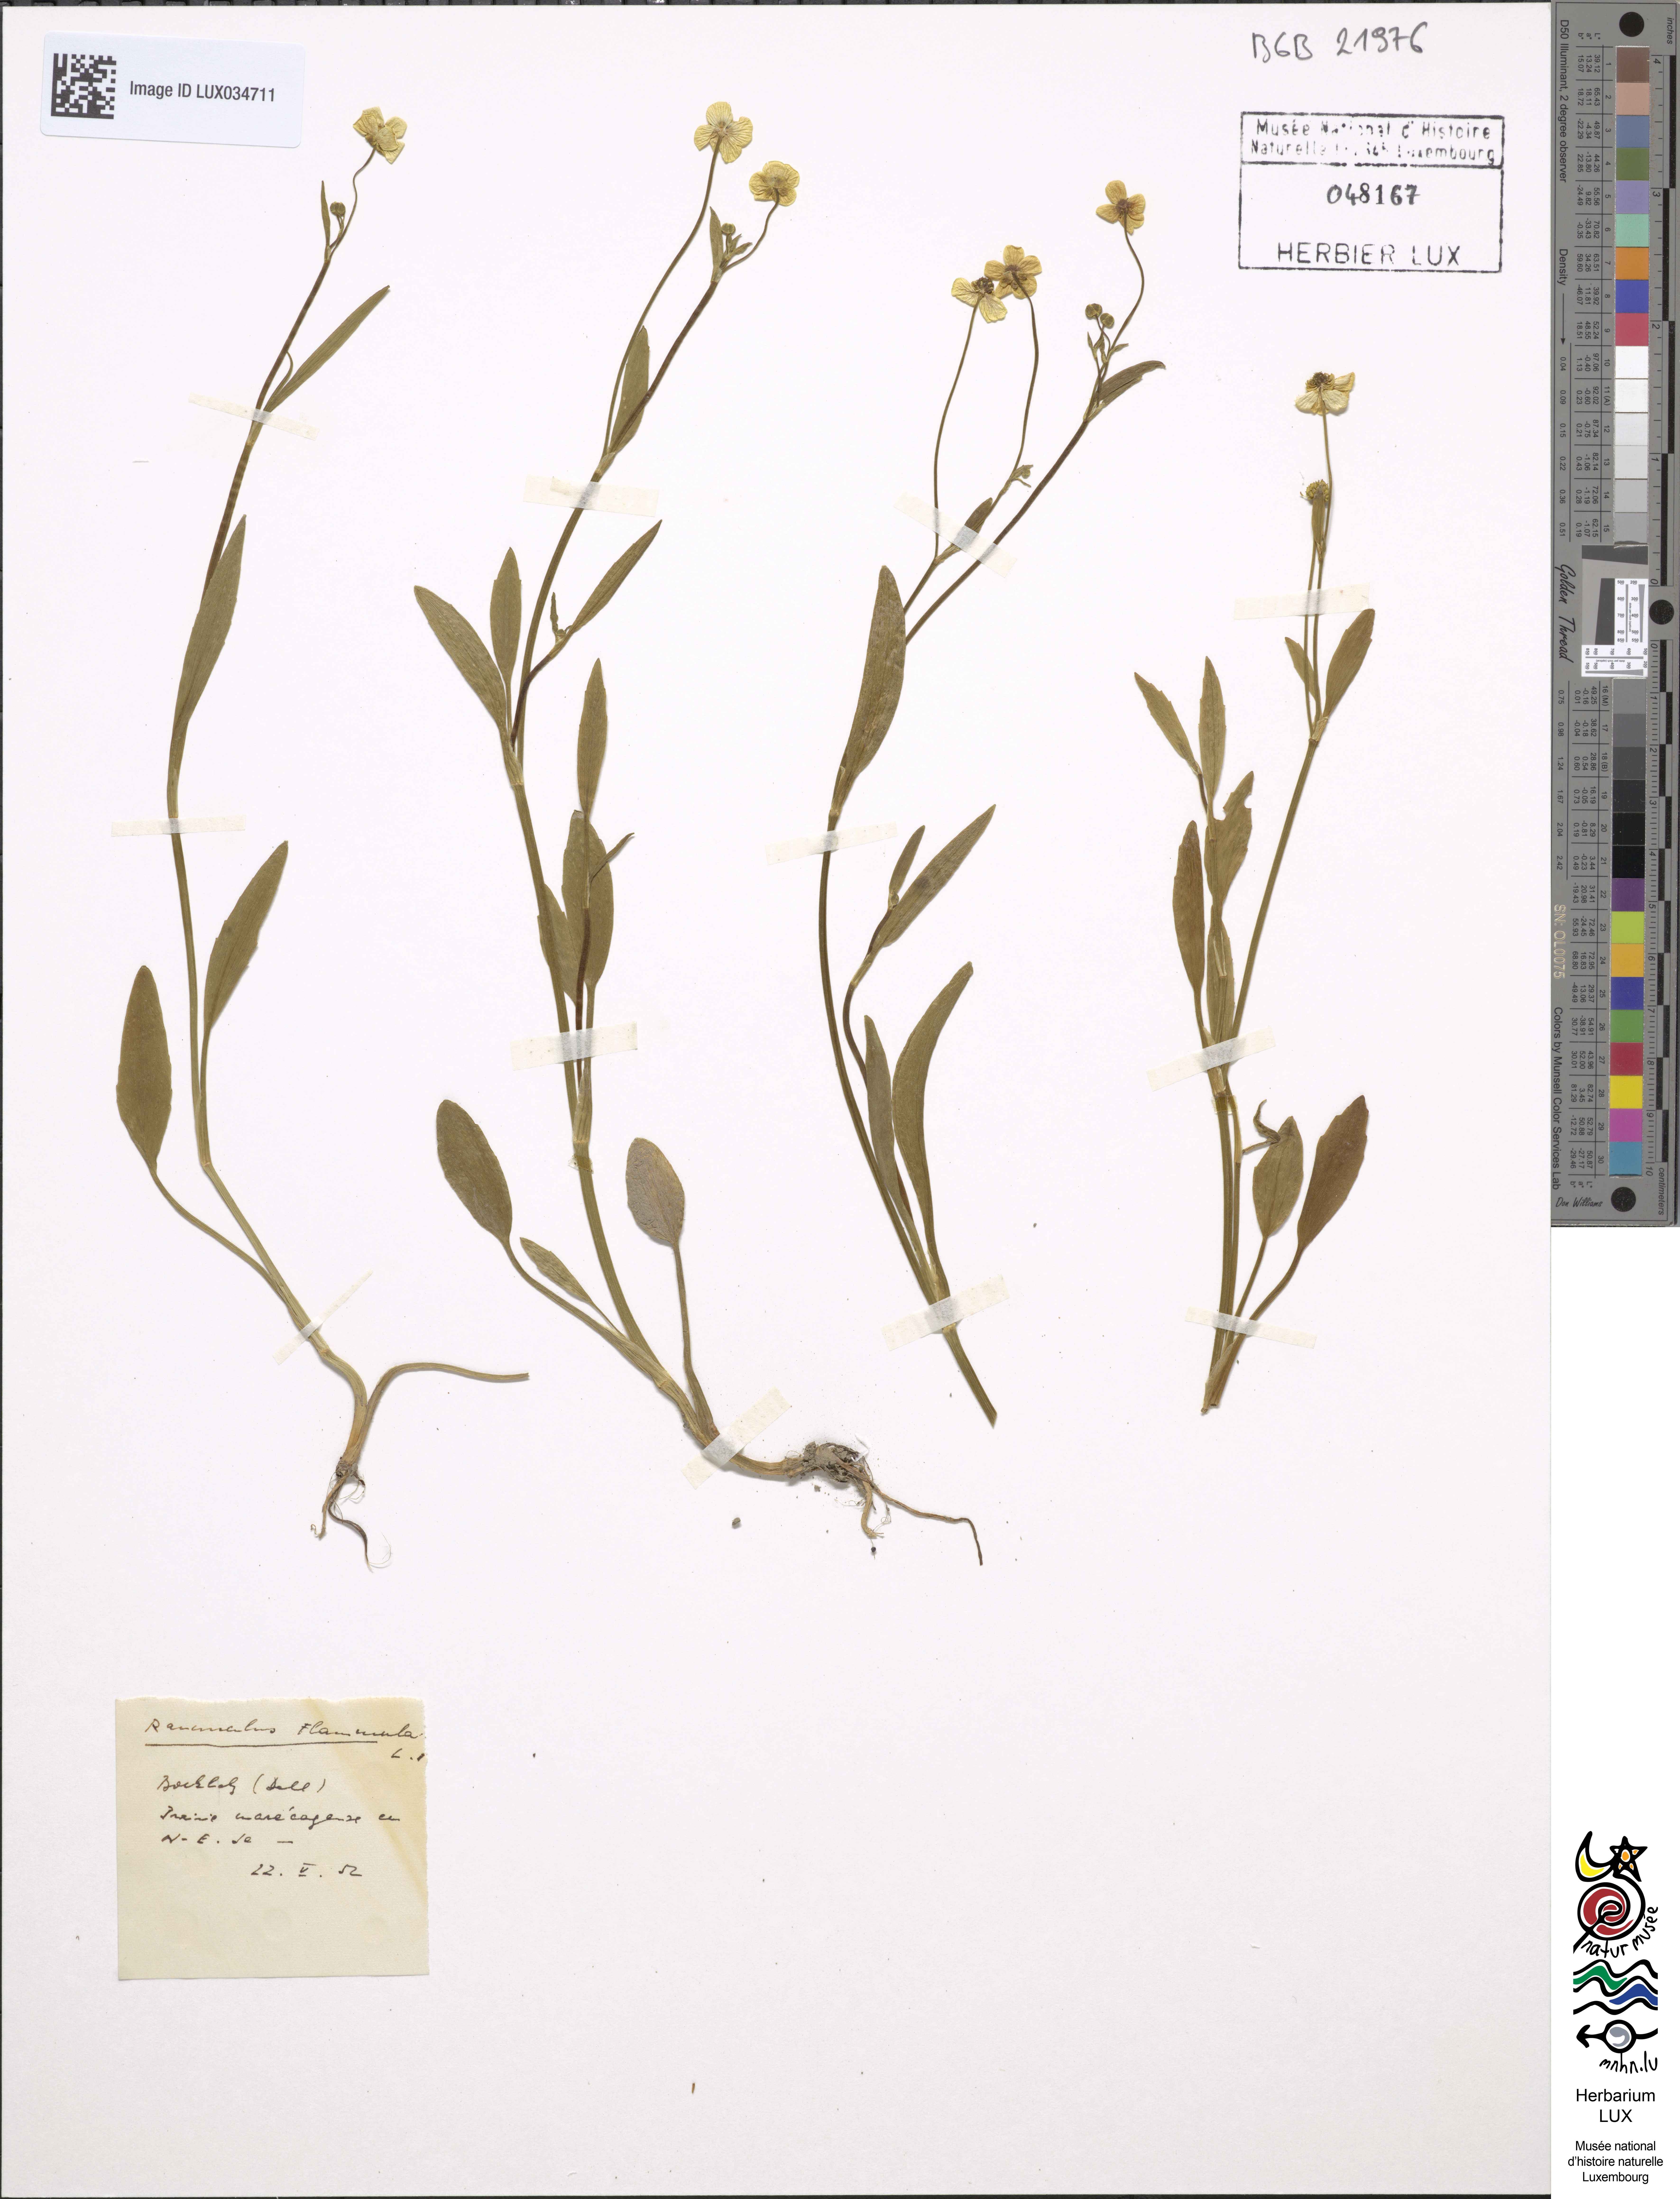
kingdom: Plantae
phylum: Tracheophyta
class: Magnoliopsida
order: Ranunculales
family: Ranunculaceae
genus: Ranunculus
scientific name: Ranunculus flammula
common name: Lesser spearwort
